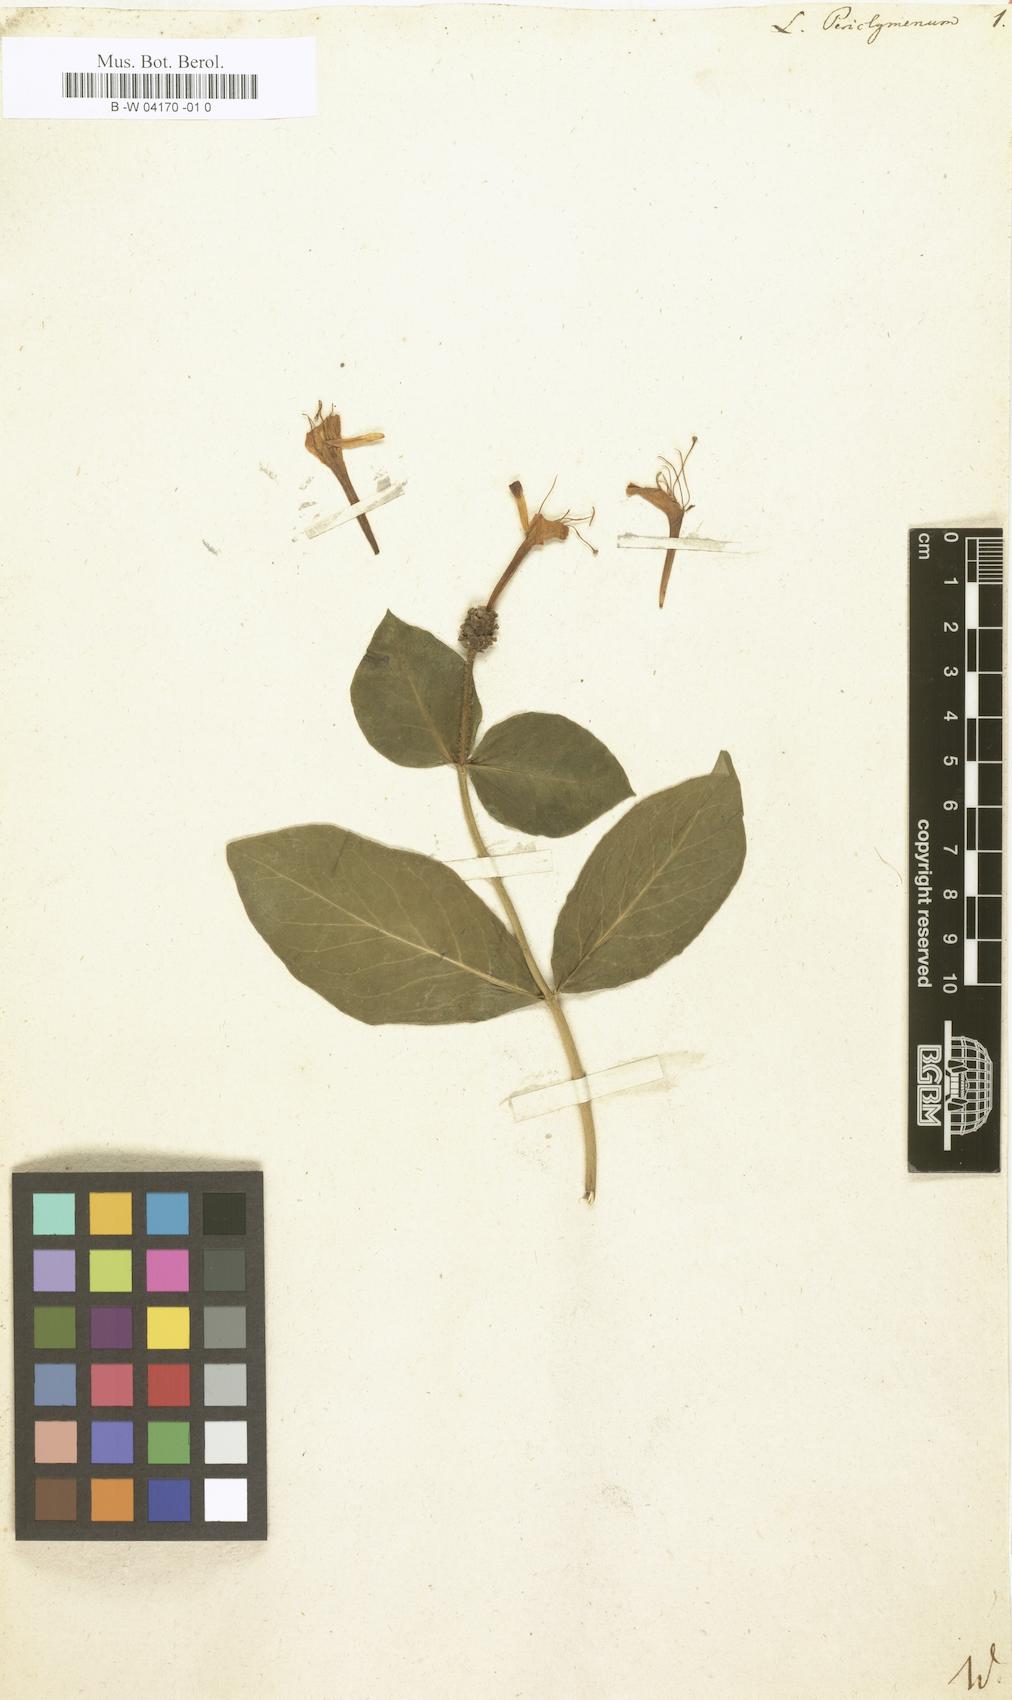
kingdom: Plantae
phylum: Tracheophyta
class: Magnoliopsida
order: Dipsacales
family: Caprifoliaceae
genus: Lonicera
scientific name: Lonicera periclymenum
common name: European honeysuckle
